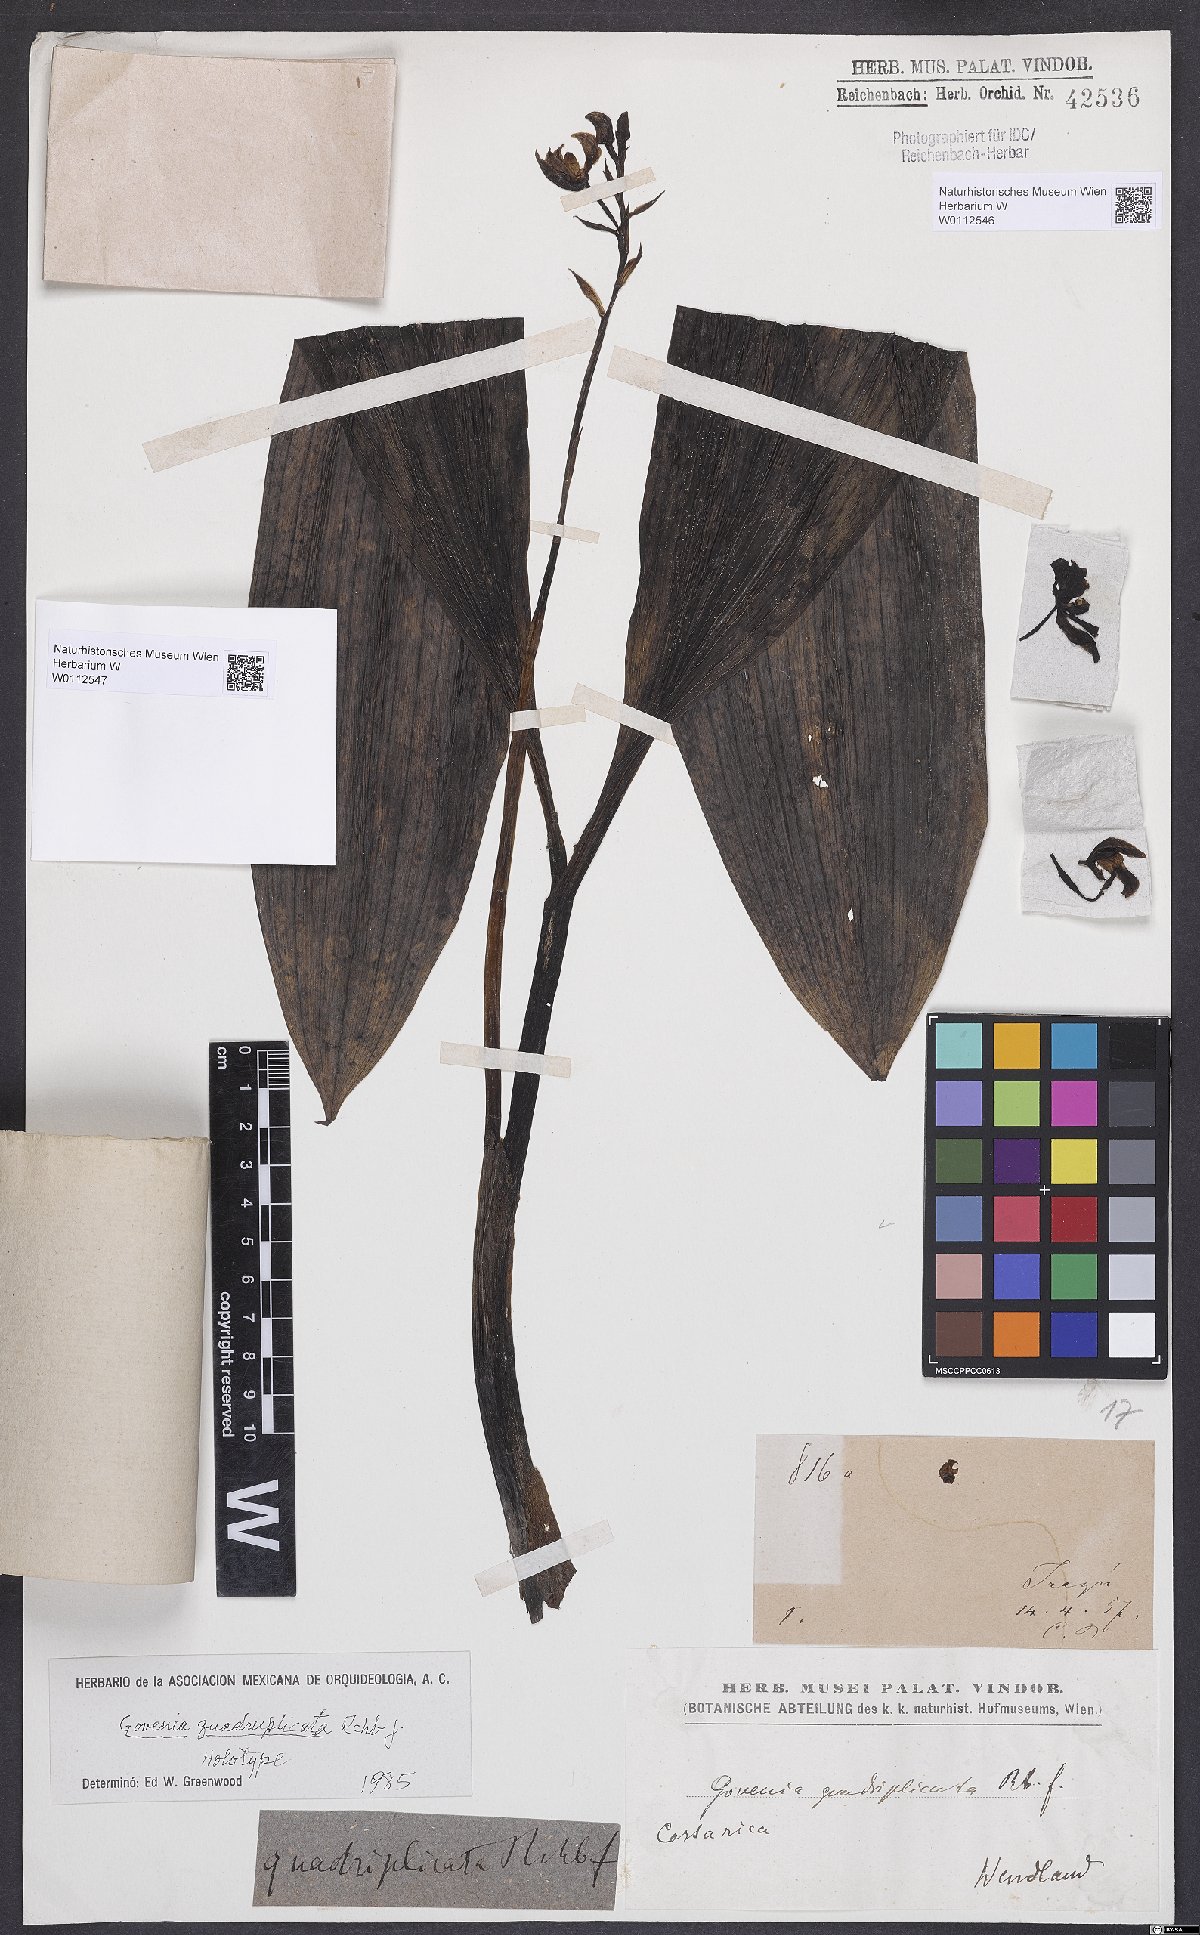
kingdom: Plantae
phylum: Tracheophyta
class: Liliopsida
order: Asparagales
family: Orchidaceae
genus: Govenia
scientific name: Govenia quadriplicata
